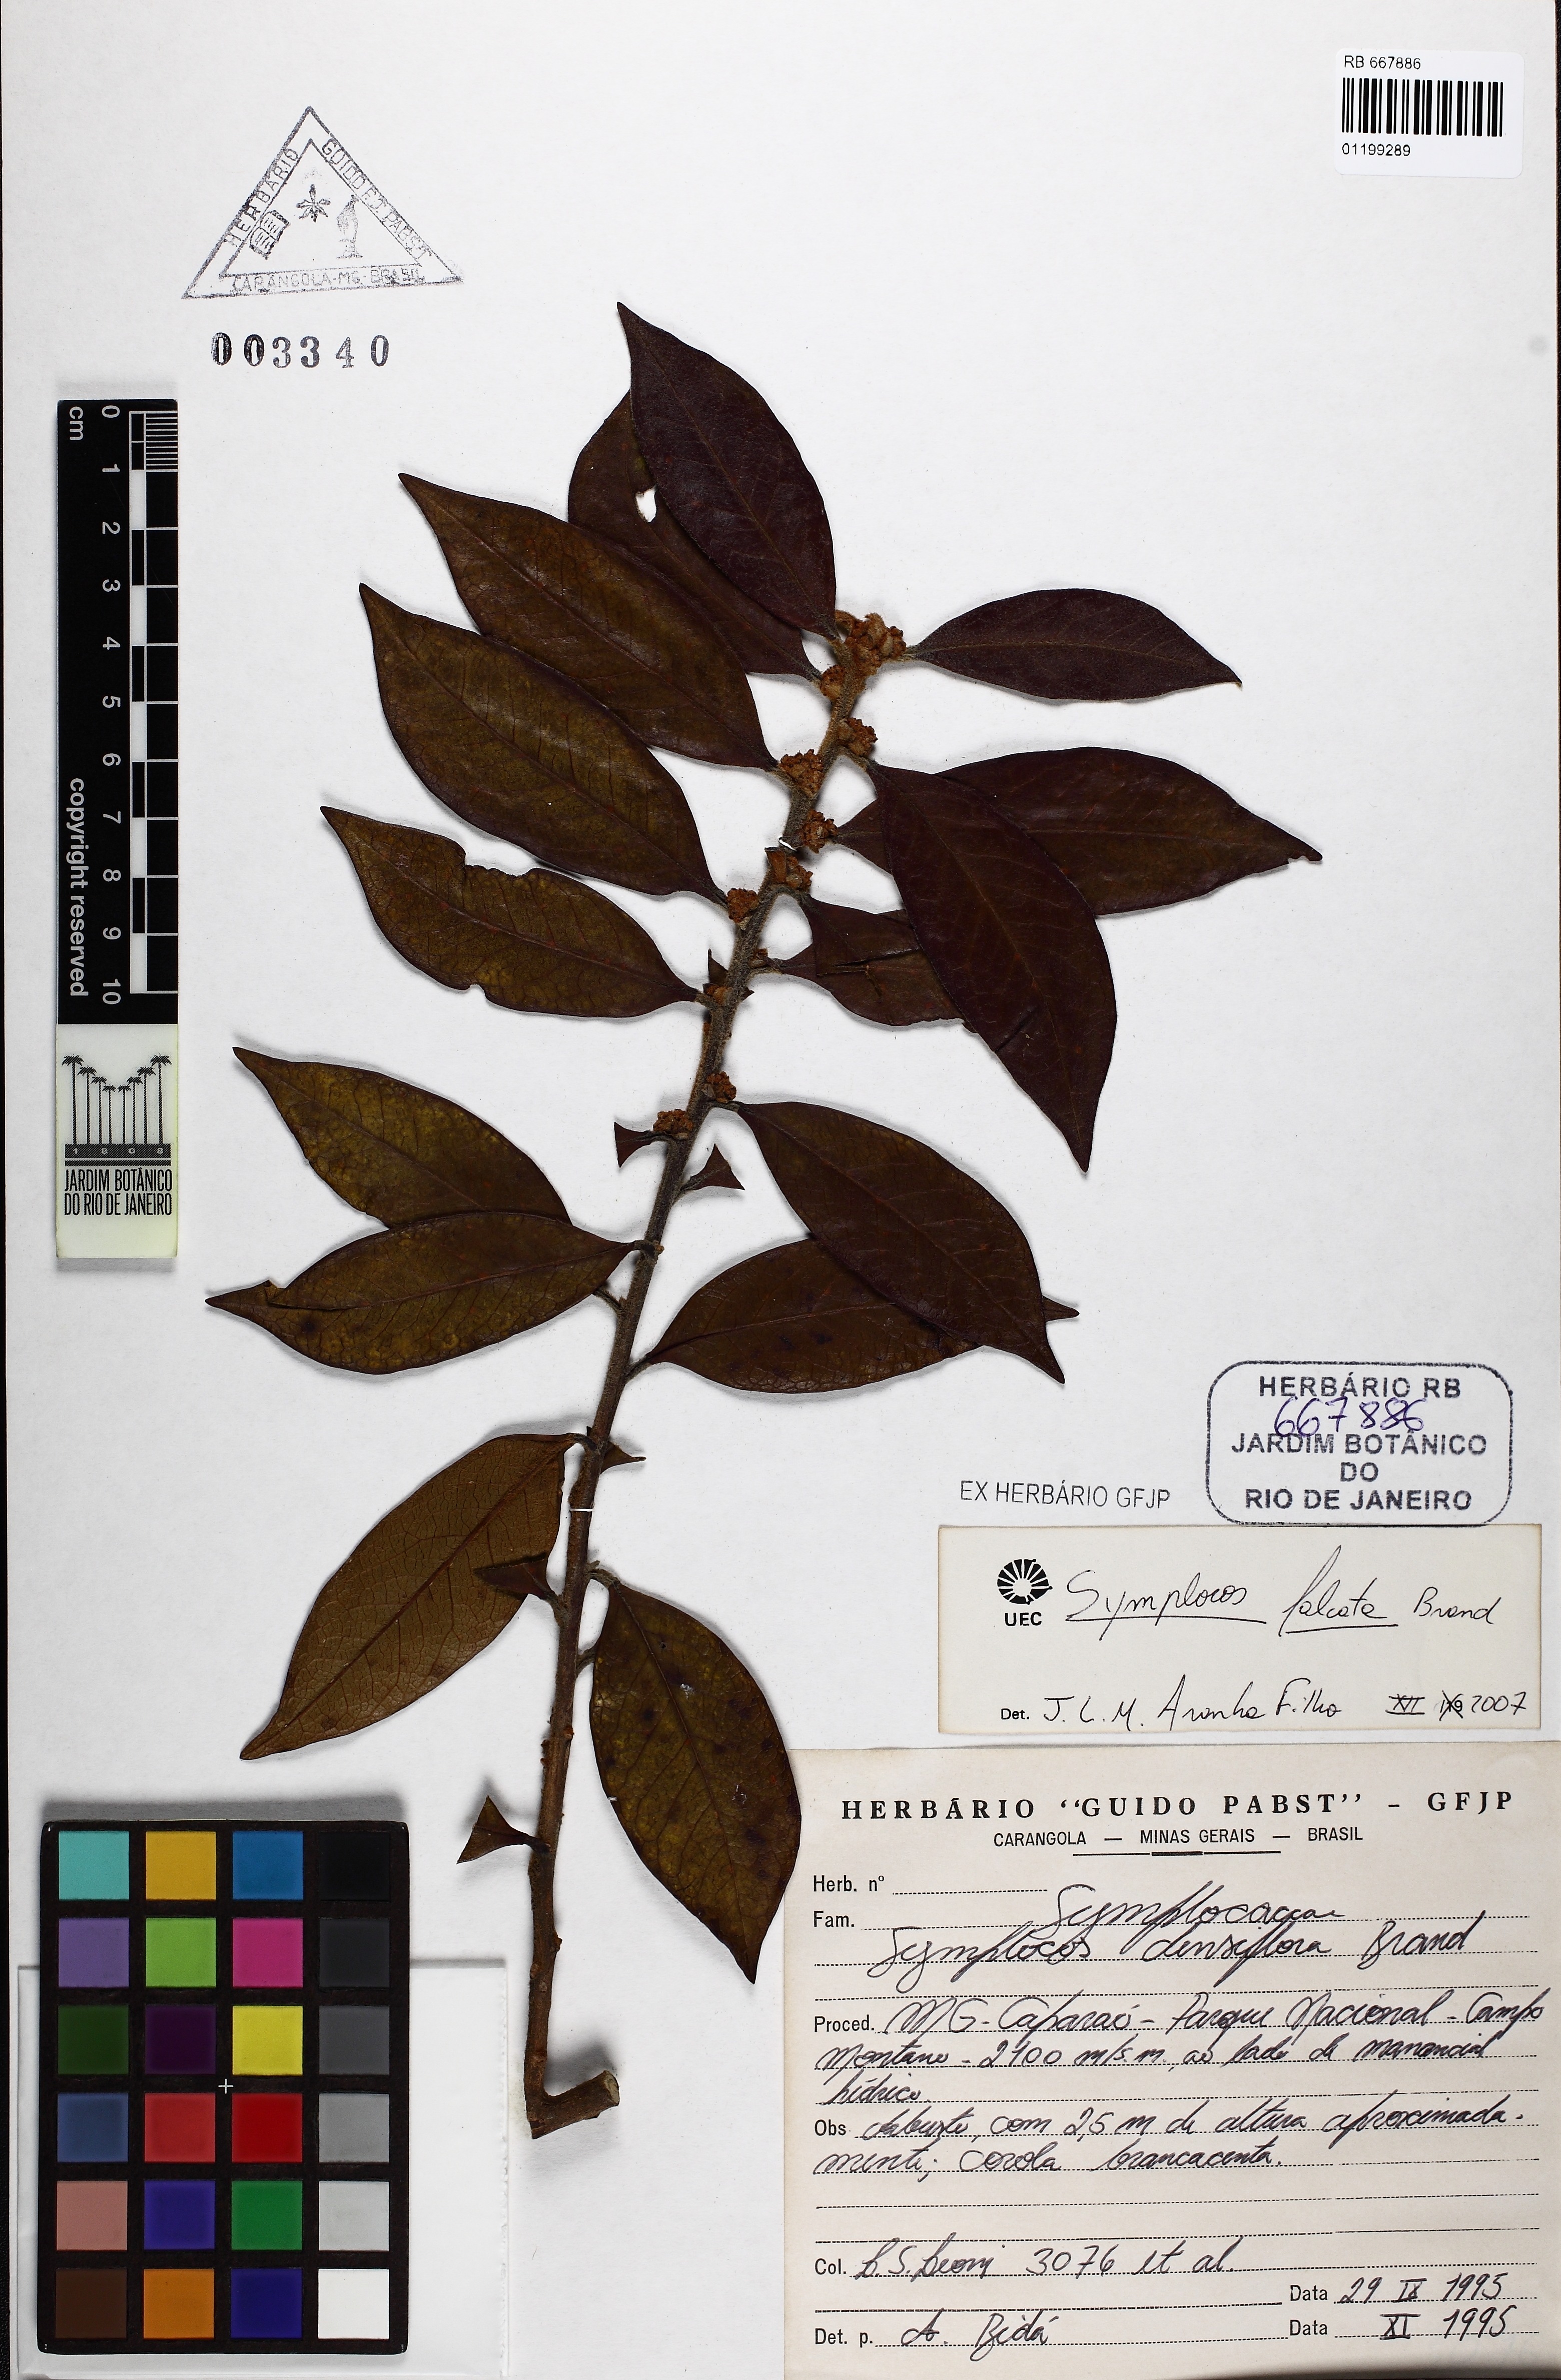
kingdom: Plantae
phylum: Tracheophyta
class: Magnoliopsida
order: Ericales
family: Symplocaceae
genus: Symplocos
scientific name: Symplocos falcata
